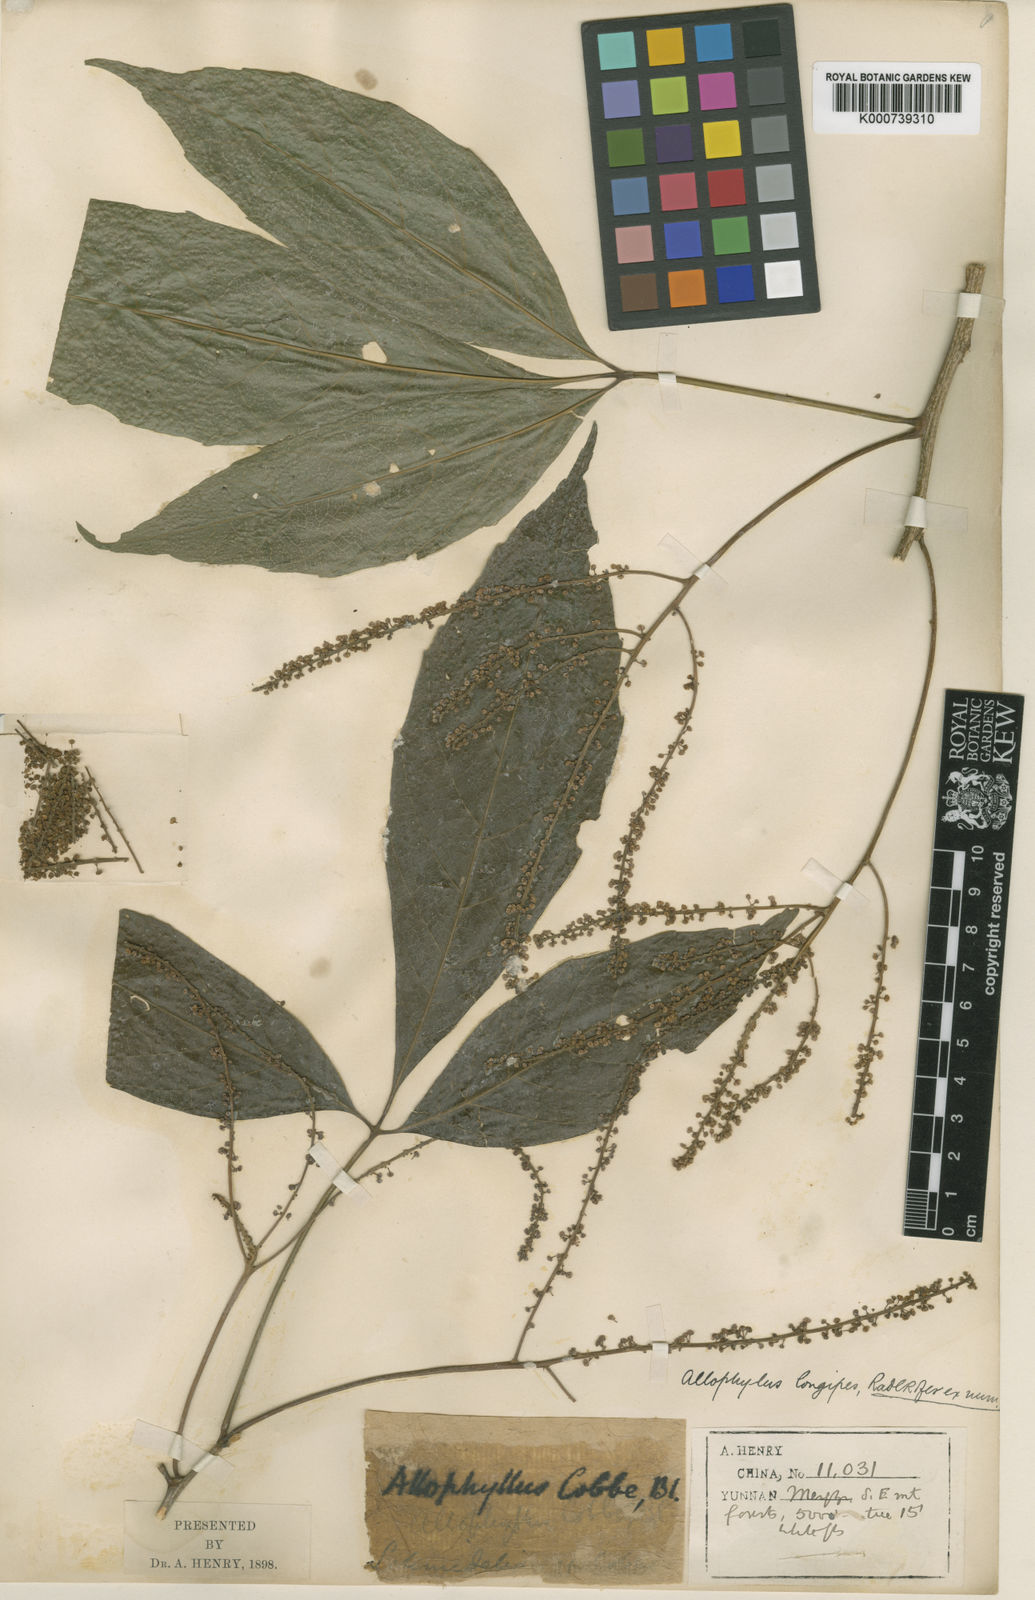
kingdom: Plantae
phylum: Tracheophyta
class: Magnoliopsida
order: Sapindales
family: Sapindaceae
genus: Allophylus
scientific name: Allophylus longipes
